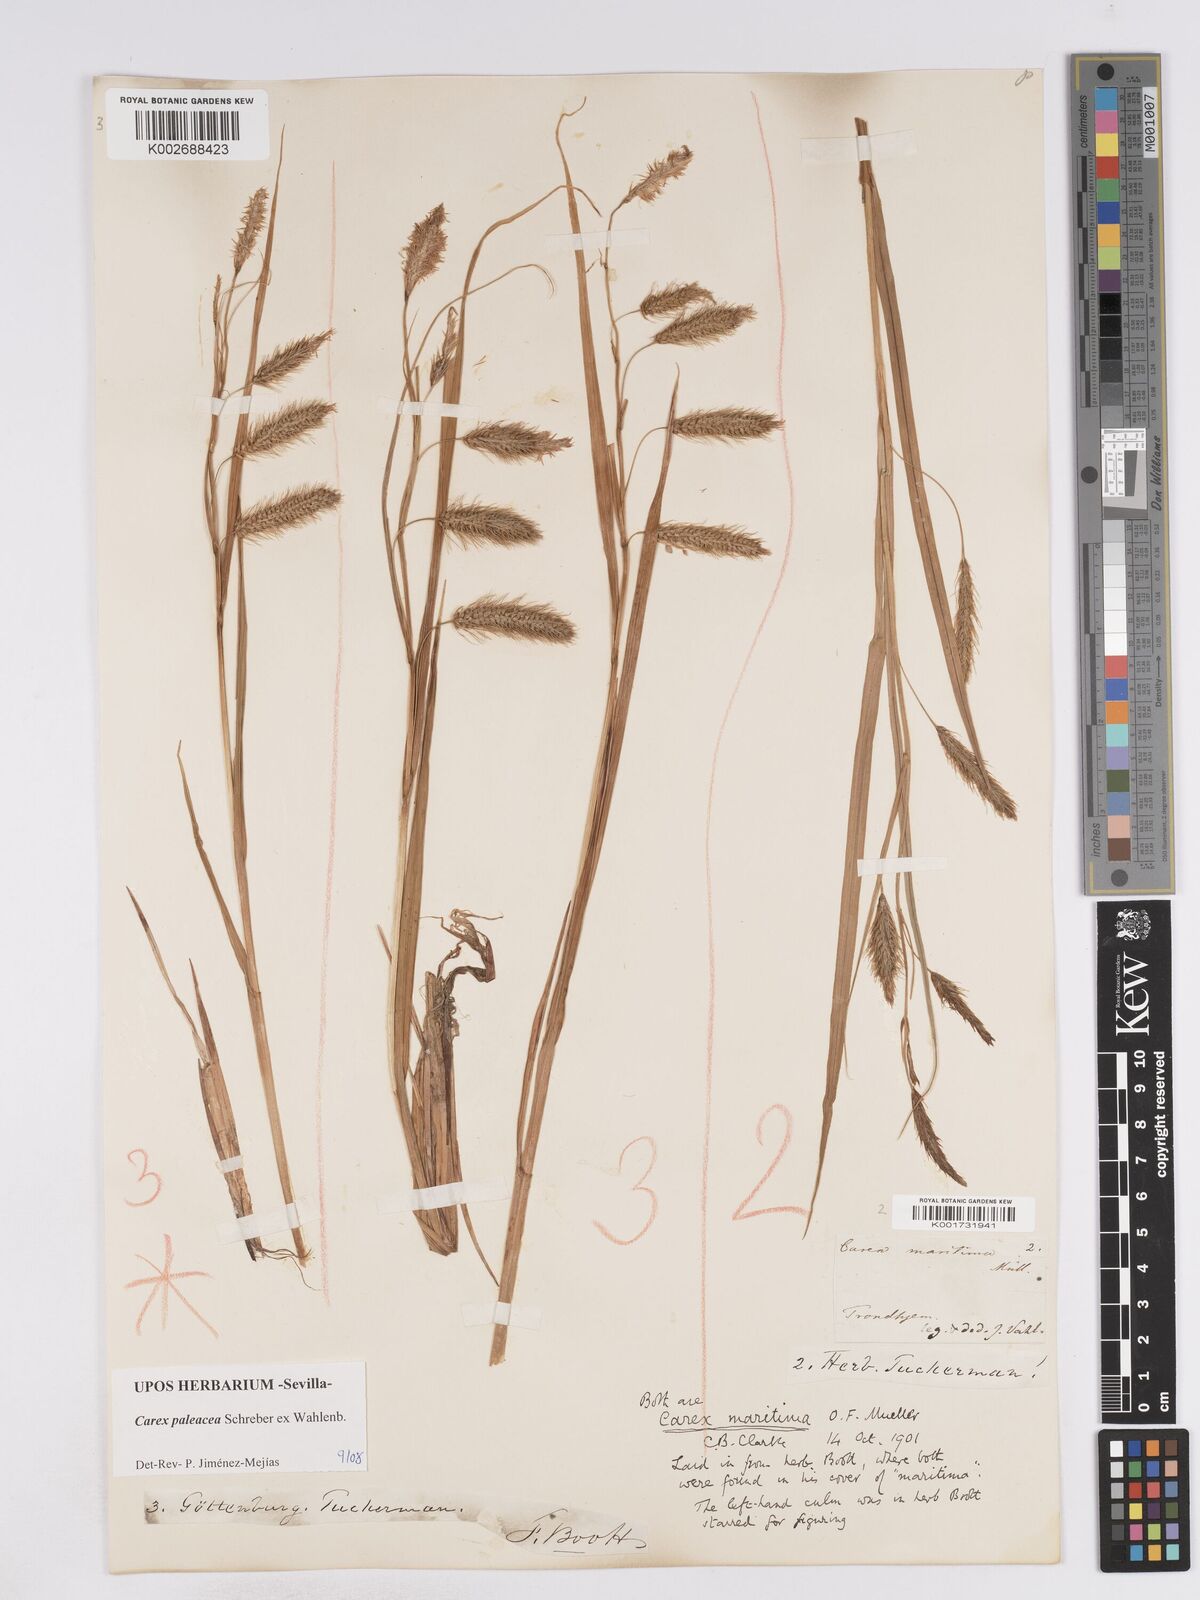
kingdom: Plantae
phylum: Tracheophyta
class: Liliopsida
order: Poales
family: Cyperaceae
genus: Carex
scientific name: Carex paleacea
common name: Chaffy sedge
